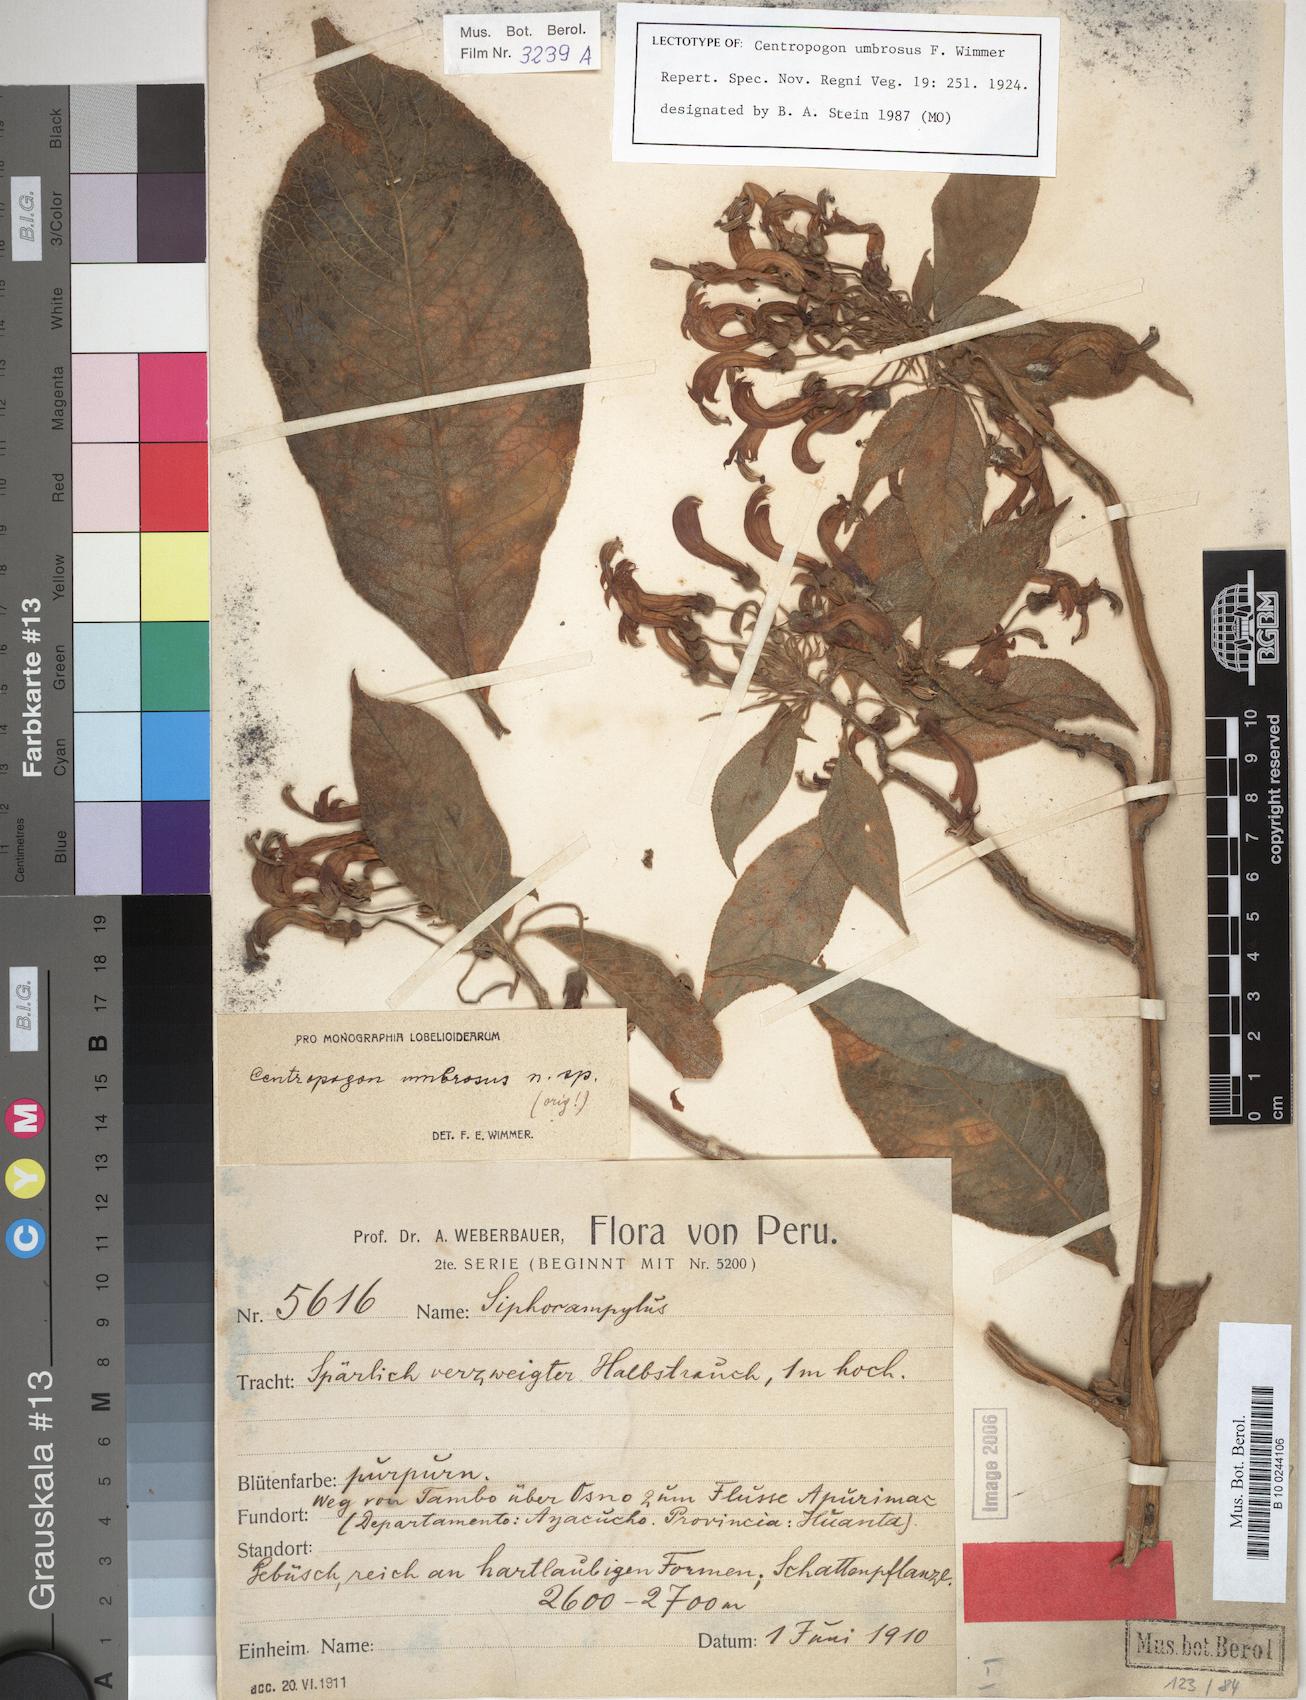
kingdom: Plantae
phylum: Tracheophyta
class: Magnoliopsida
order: Asterales
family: Campanulaceae
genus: Centropogon
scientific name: Centropogon umbrosus
